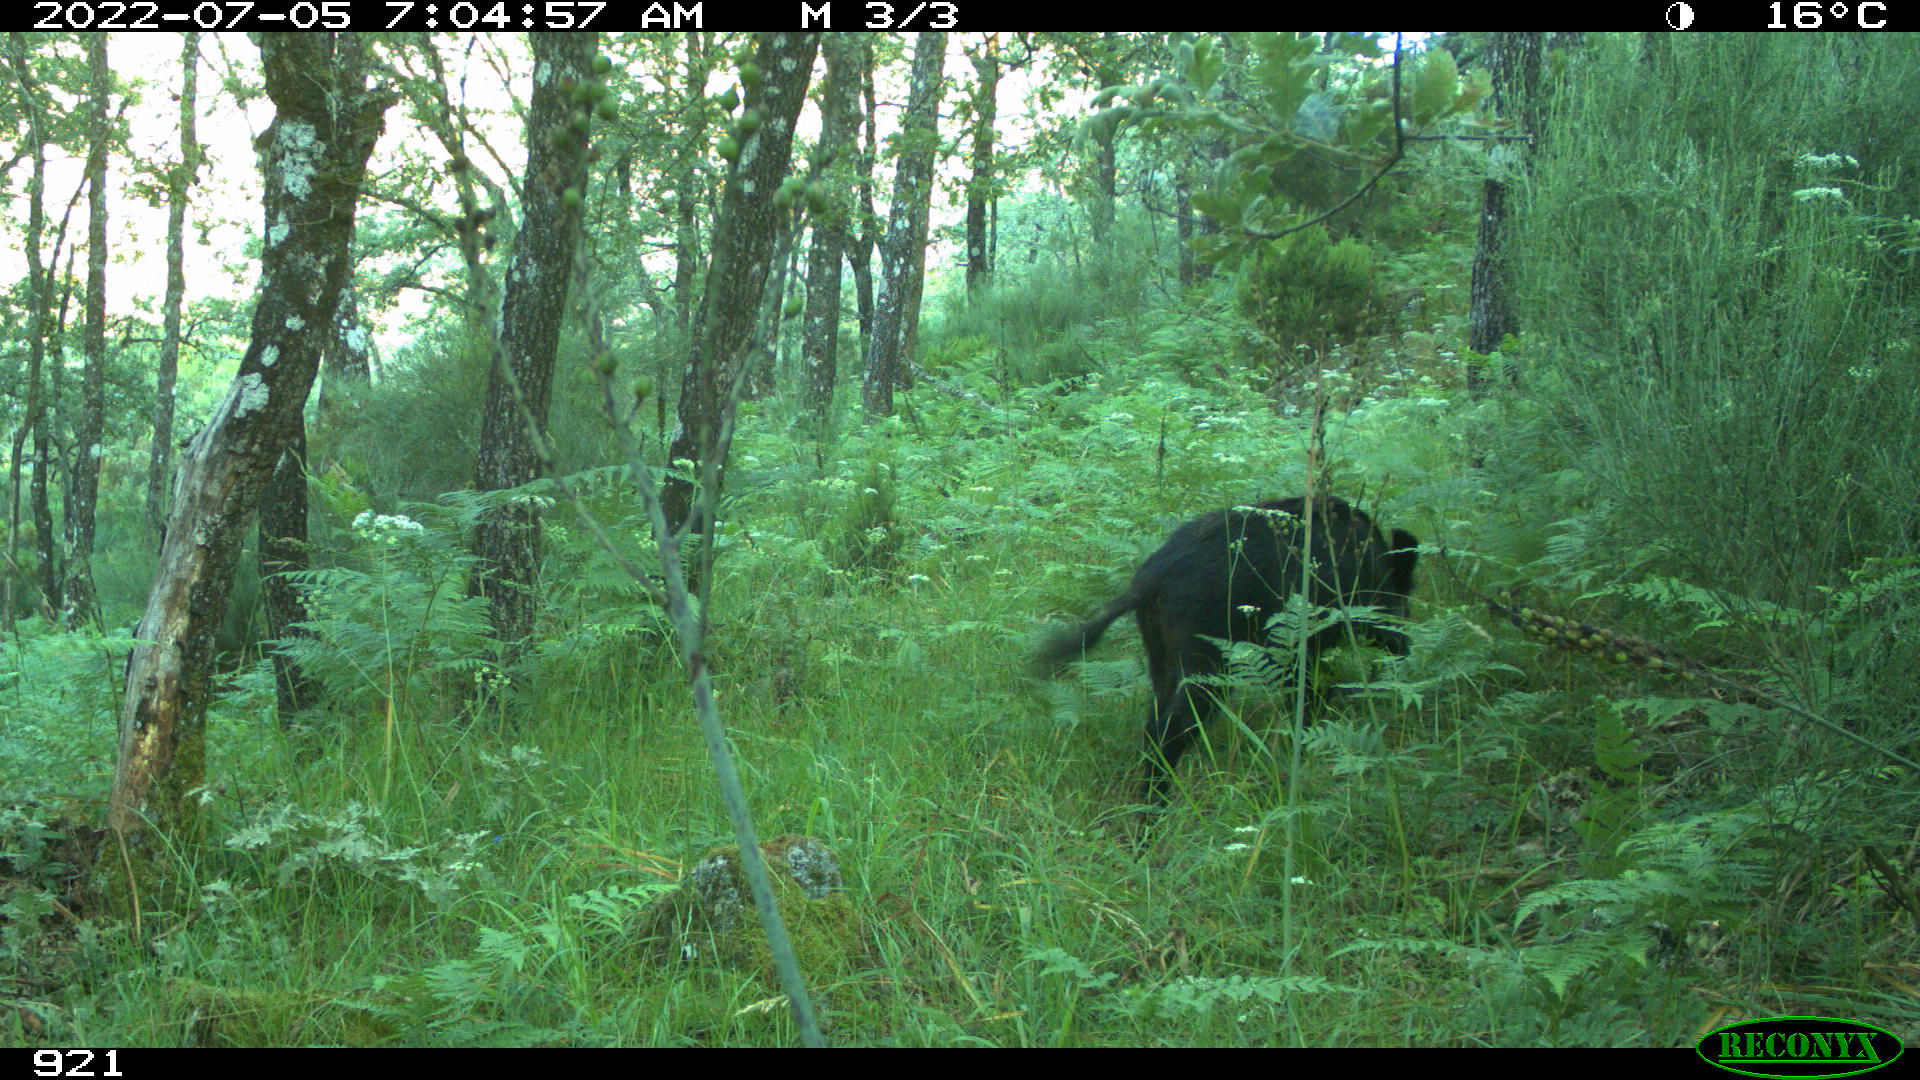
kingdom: Animalia
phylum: Chordata
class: Mammalia
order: Artiodactyla
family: Suidae
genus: Sus
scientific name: Sus scrofa
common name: Wild boar
